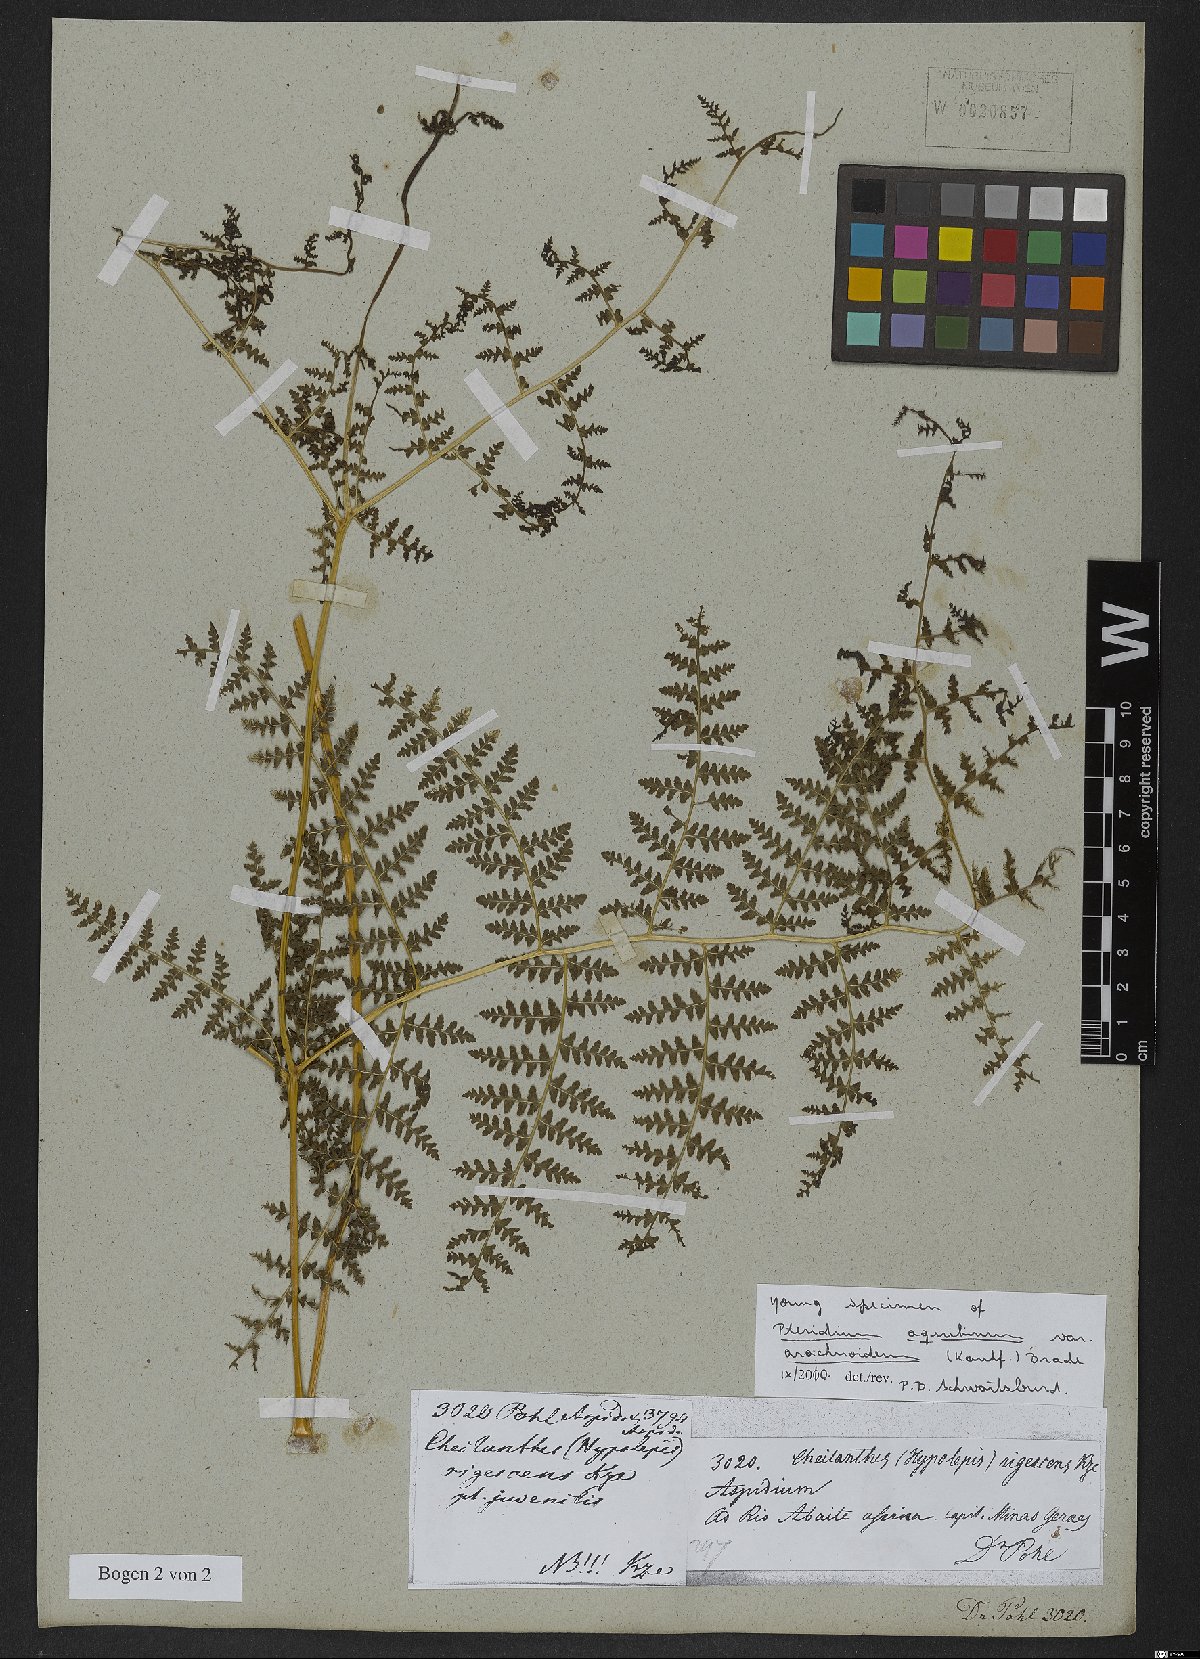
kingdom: Plantae
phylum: Tracheophyta
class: Polypodiopsida
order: Polypodiales
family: Dennstaedtiaceae
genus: Pteridium
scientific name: Pteridium esculentum
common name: Bracken fern
